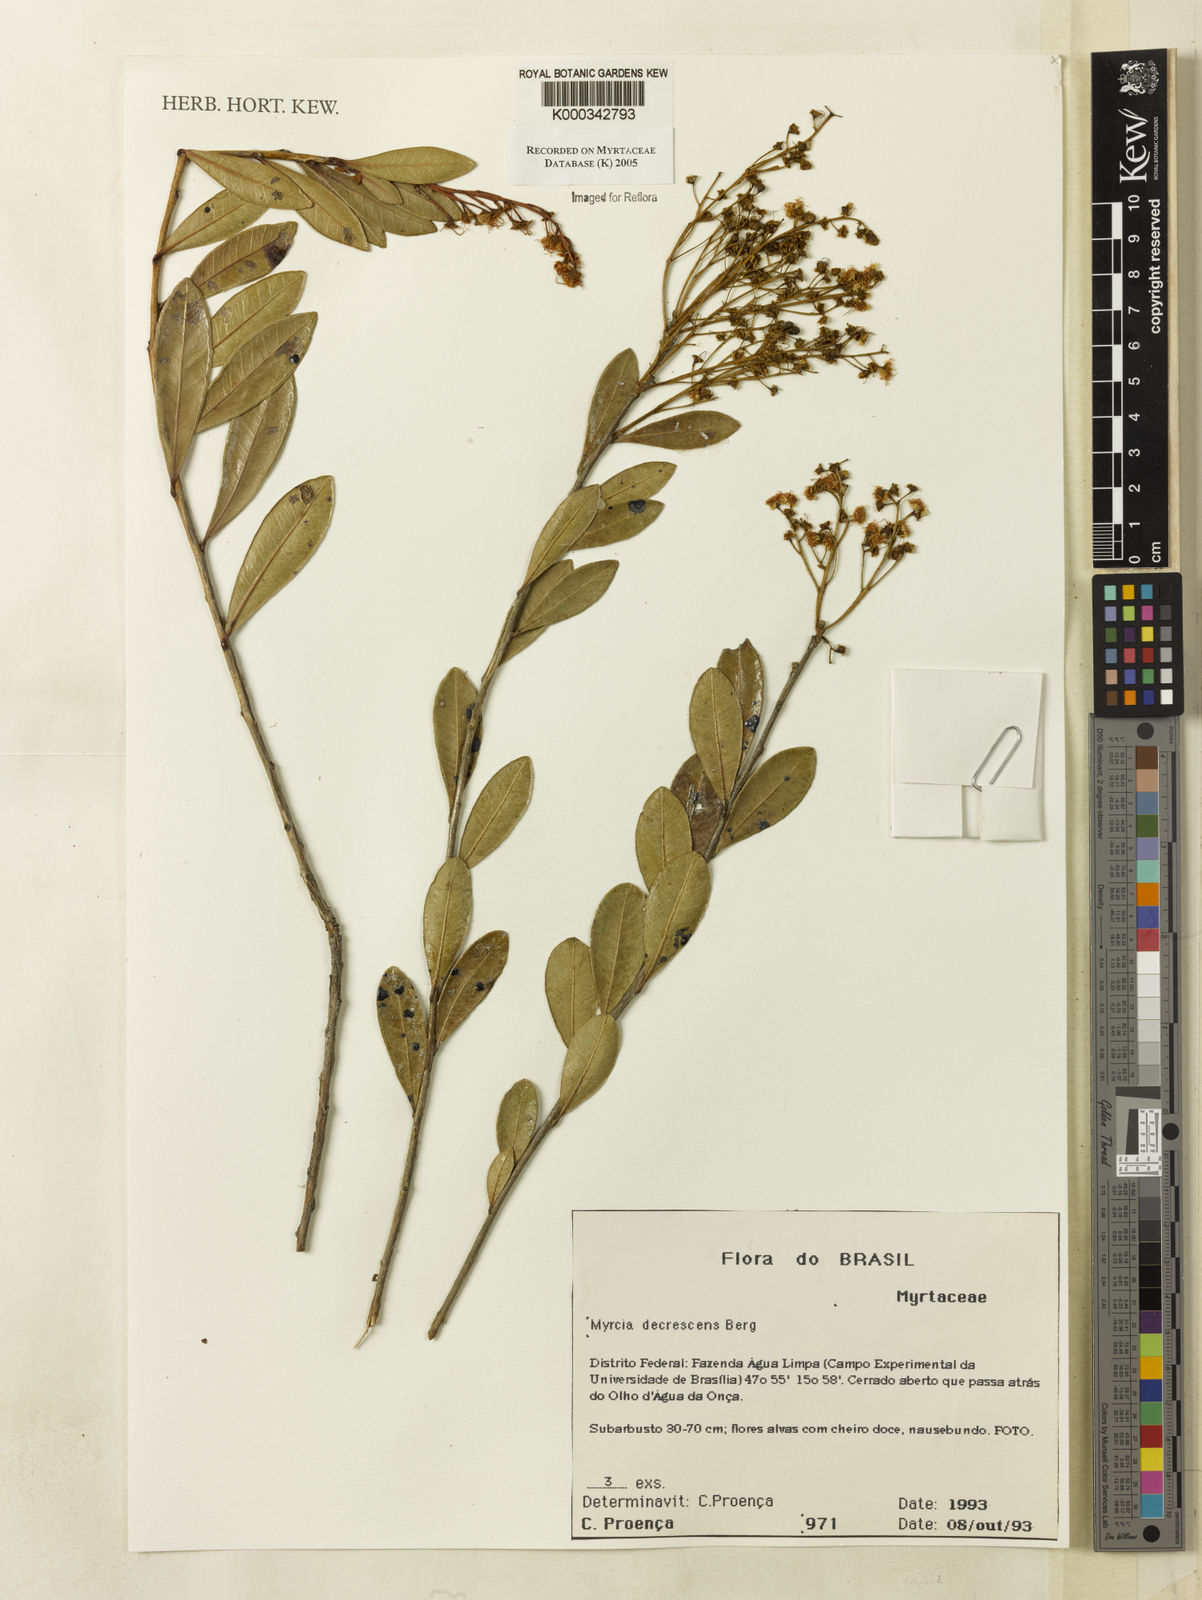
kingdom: Plantae
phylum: Tracheophyta
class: Magnoliopsida
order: Myrtales
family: Myrtaceae
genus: Myrcia
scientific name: Myrcia
